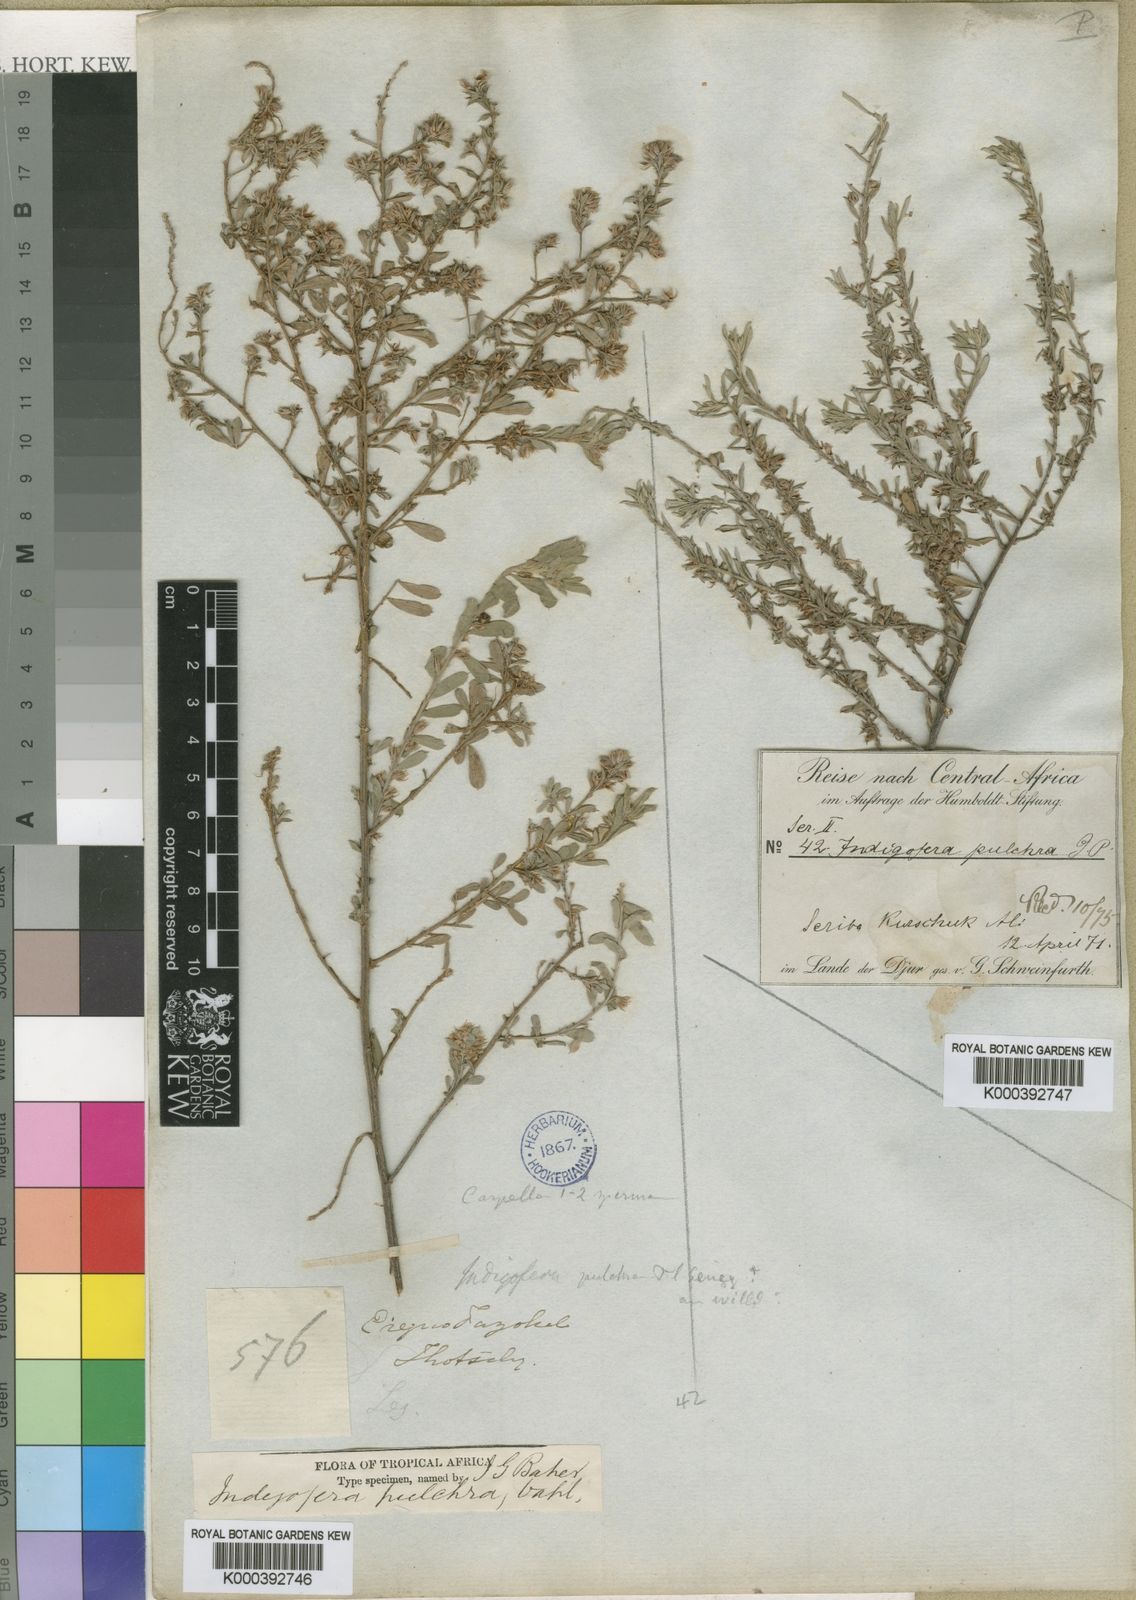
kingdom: Plantae
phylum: Tracheophyta
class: Magnoliopsida
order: Fabales
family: Fabaceae
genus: Indigofera
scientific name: Indigofera pulchra
